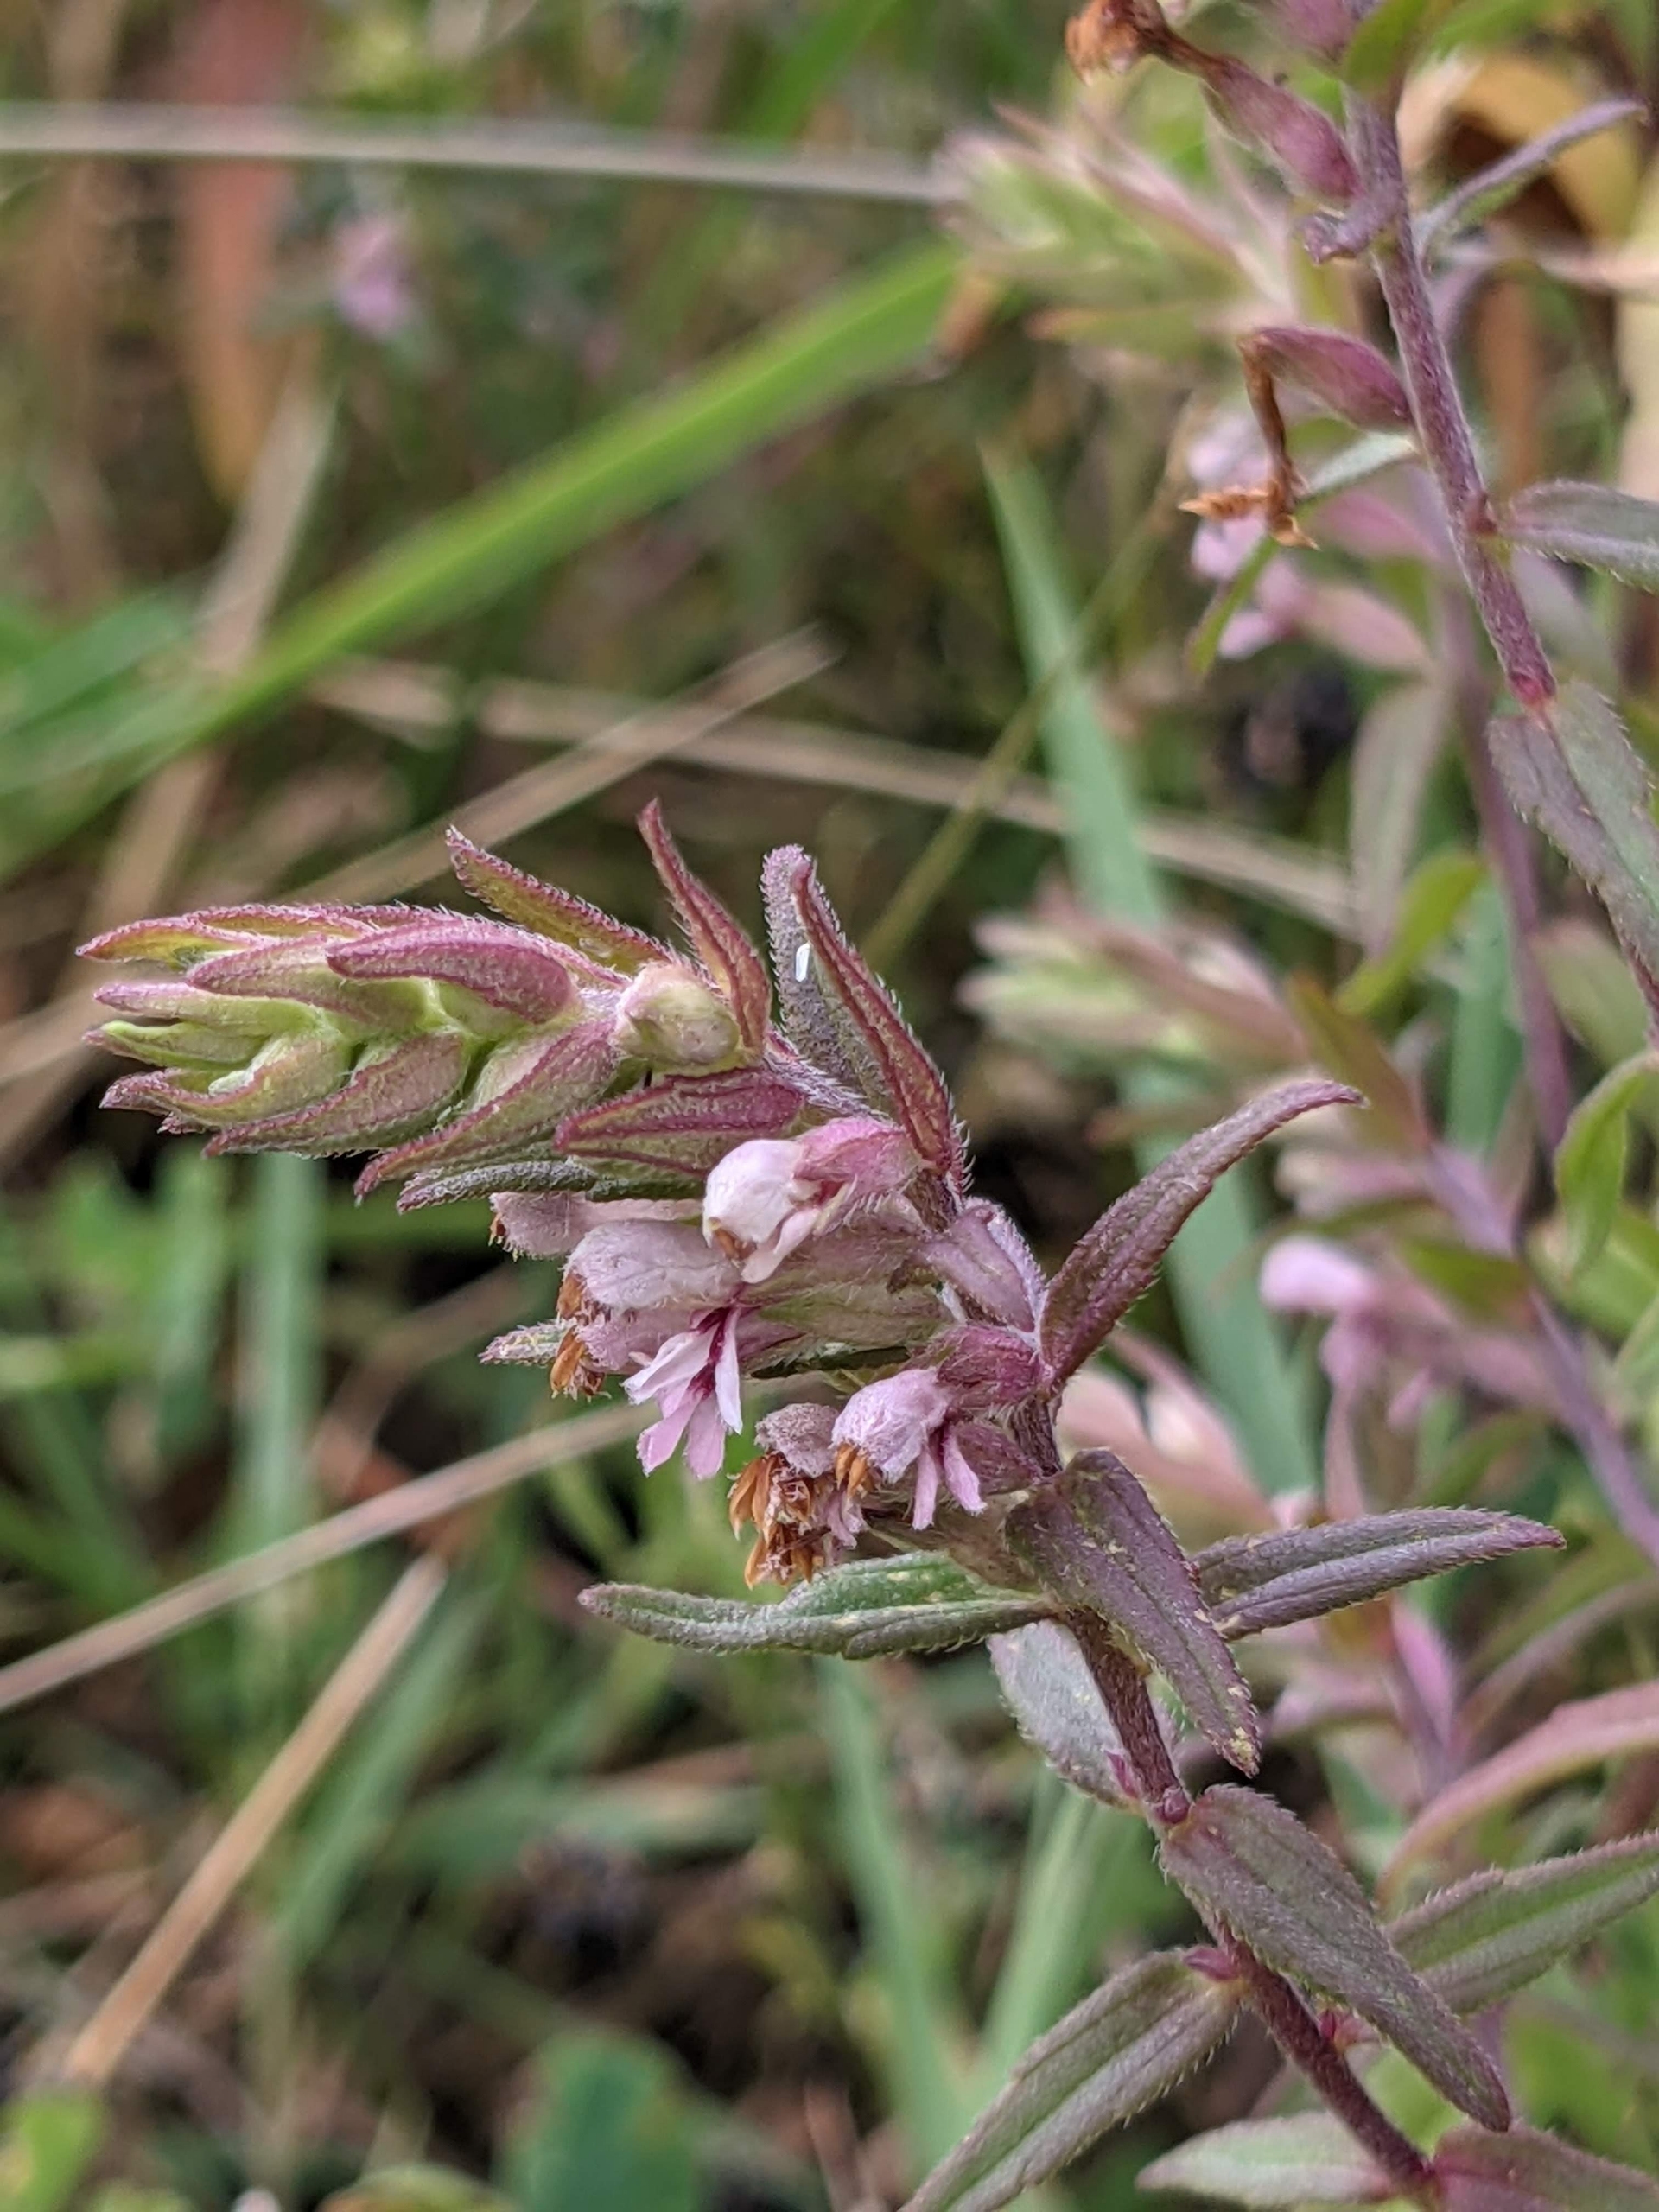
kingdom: Plantae
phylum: Tracheophyta
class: Magnoliopsida
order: Lamiales
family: Orobanchaceae
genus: Odontites
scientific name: Odontites vulgaris
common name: Høst-rødtop
